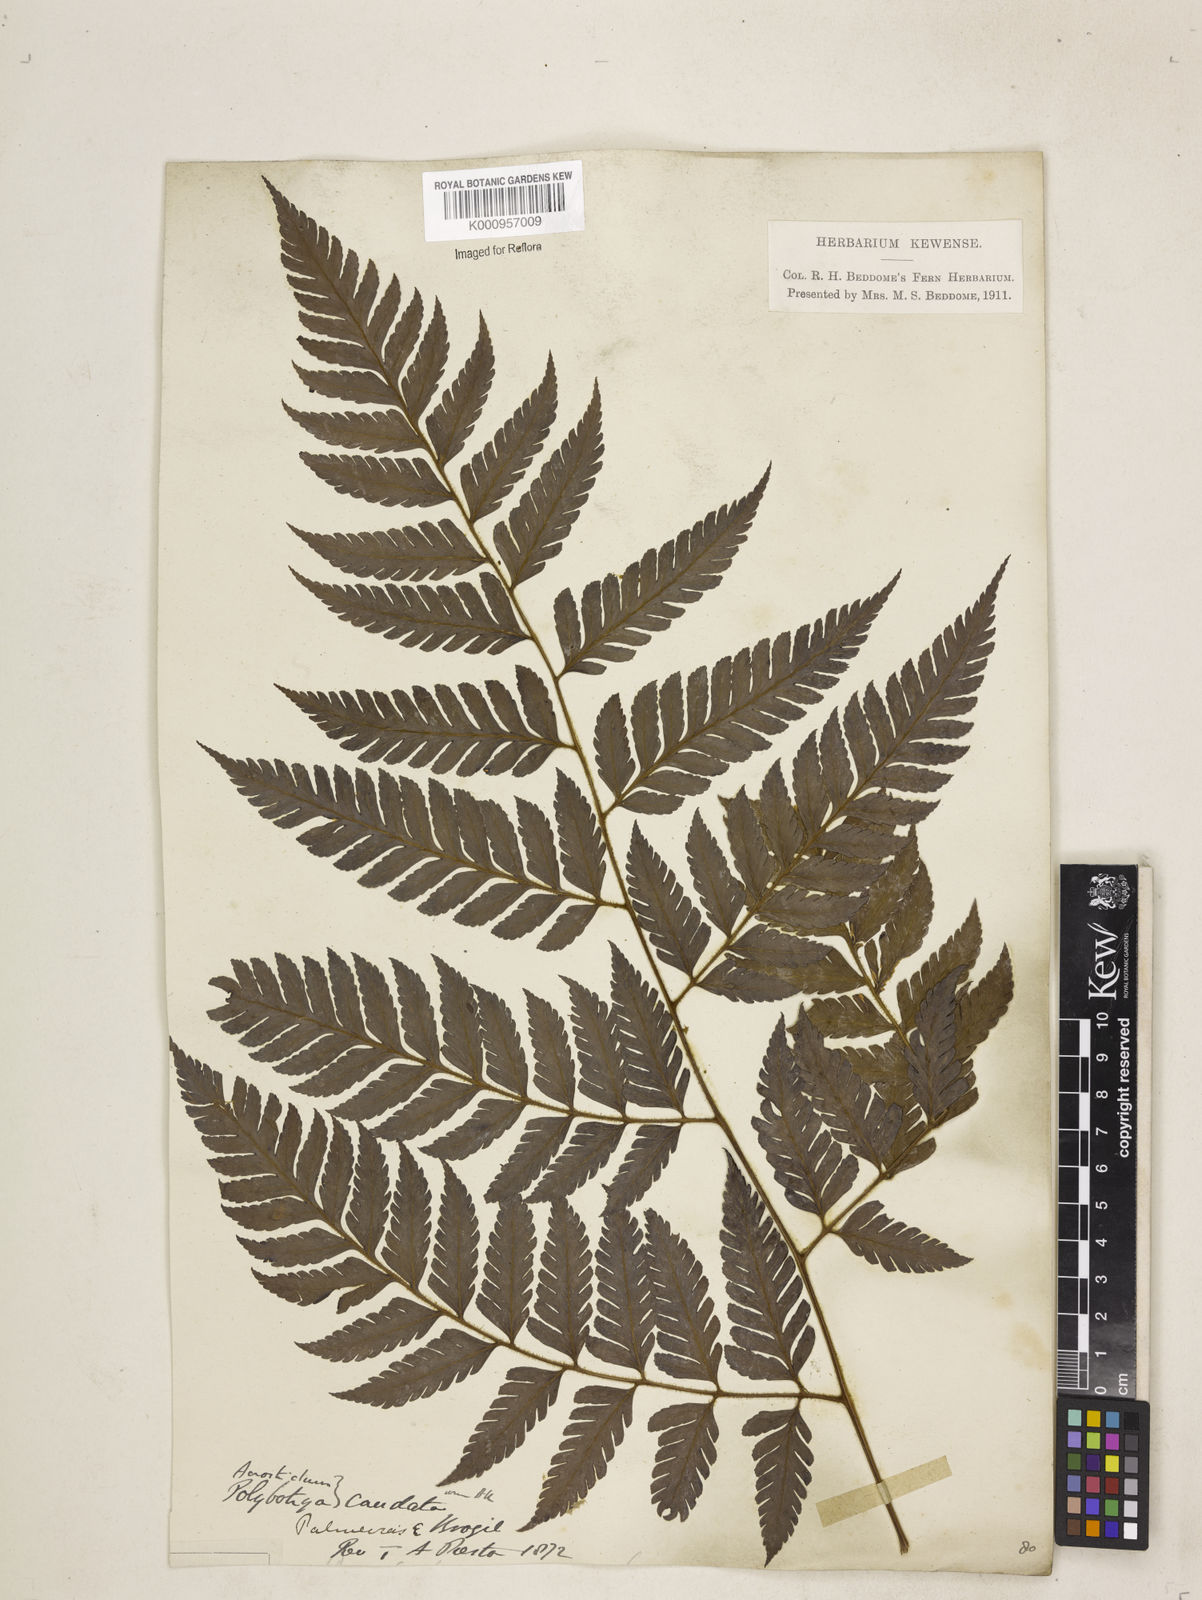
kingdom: Plantae
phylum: Tracheophyta
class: Polypodiopsida
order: Polypodiales
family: Dryopteridaceae
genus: Polybotrya
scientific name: Polybotrya caudata
